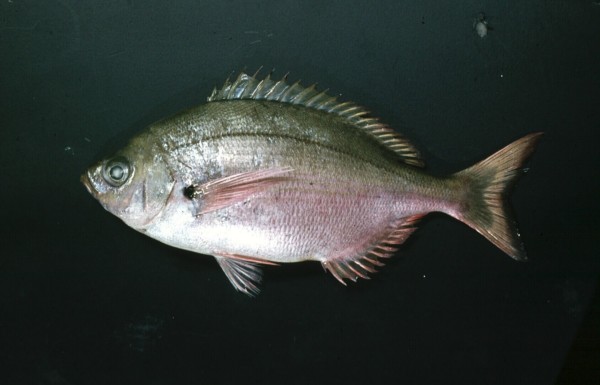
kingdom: Animalia
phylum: Chordata
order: Perciformes
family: Sparidae
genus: Spicara
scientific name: Spicara axillaris
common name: Windtoy
